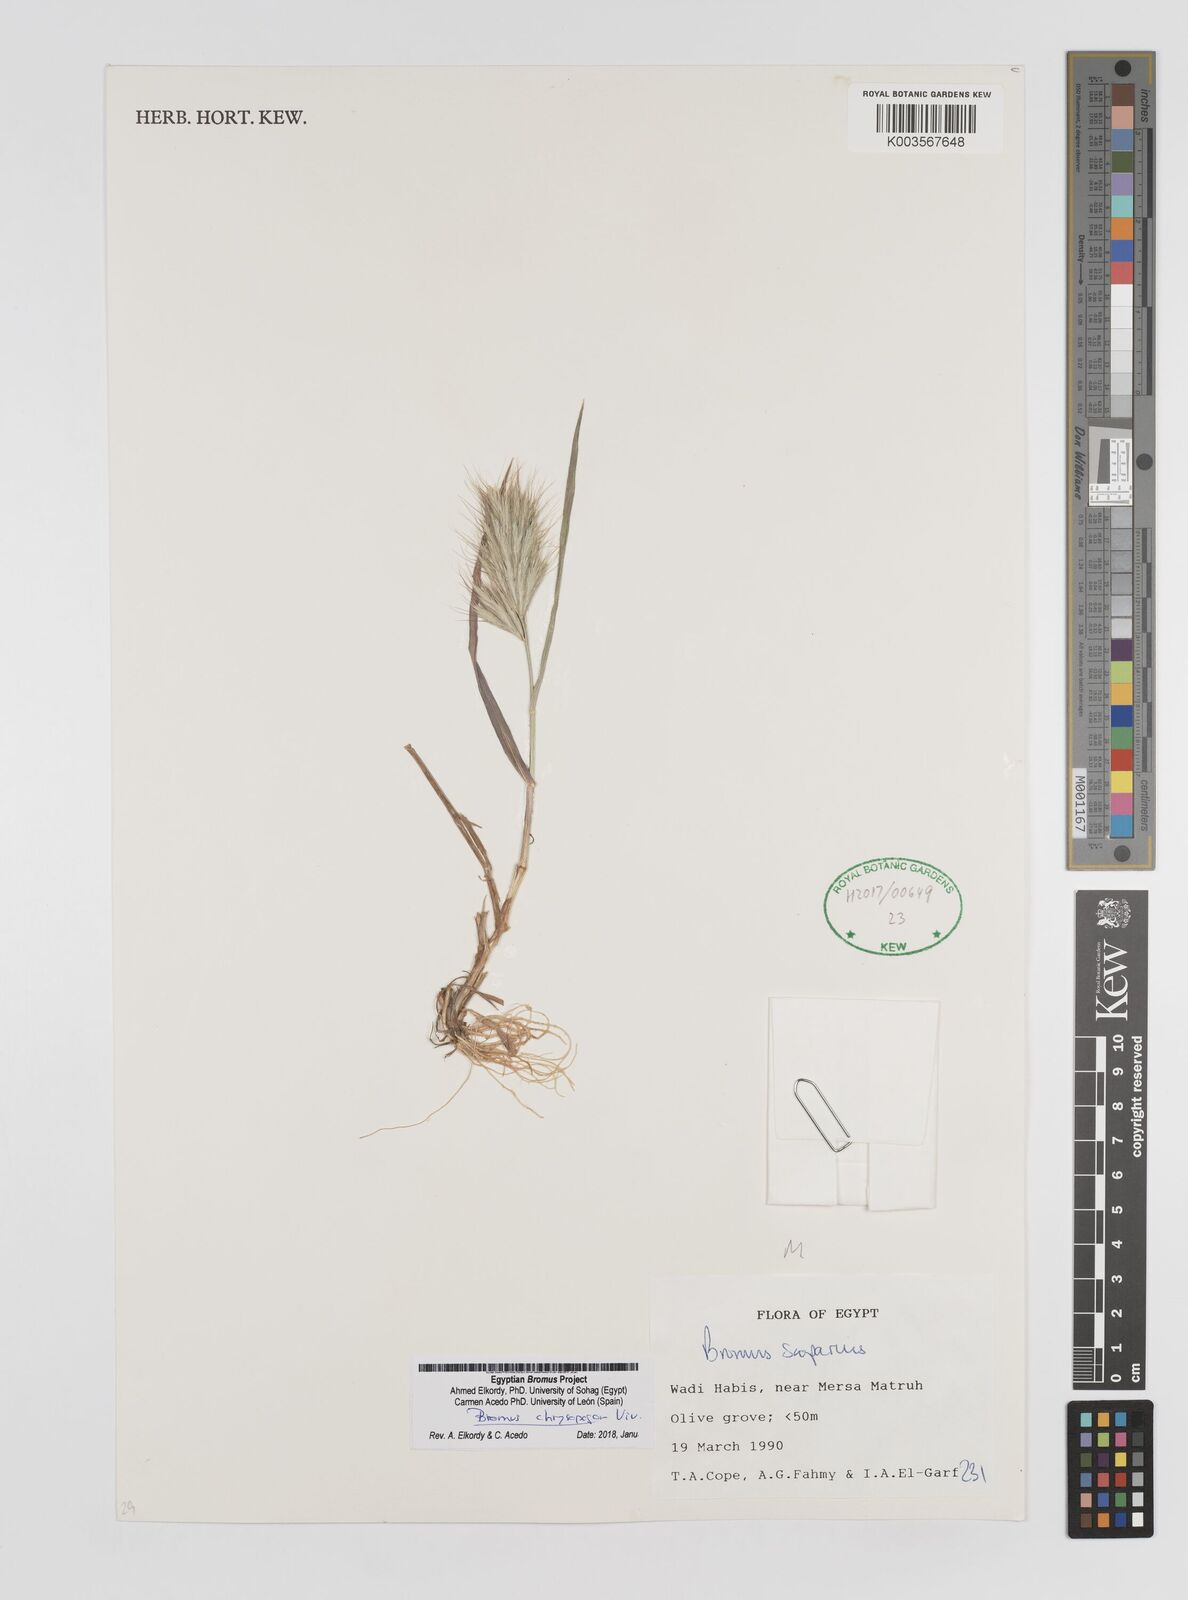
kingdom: Plantae
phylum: Tracheophyta
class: Liliopsida
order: Poales
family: Poaceae
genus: Bromus
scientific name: Bromus chrysopogon
